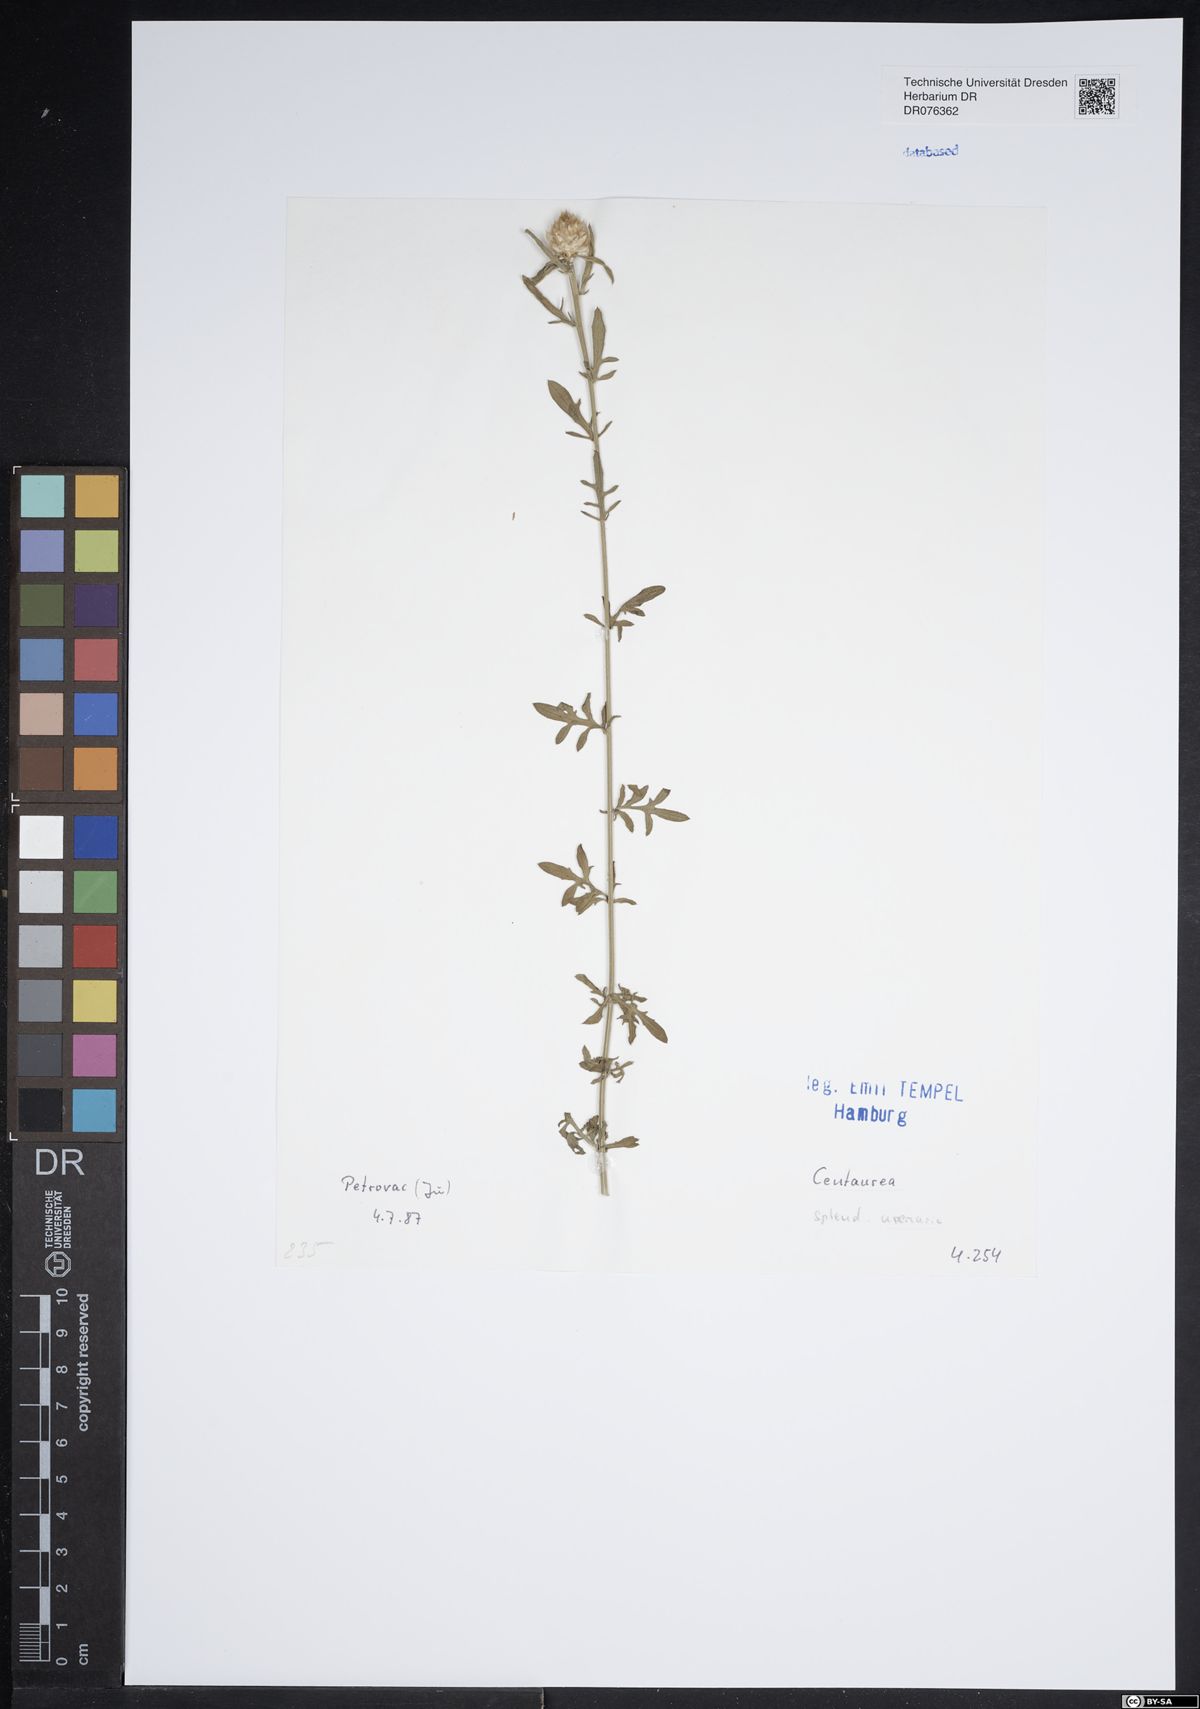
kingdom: Plantae
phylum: Tracheophyta
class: Magnoliopsida
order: Asterales
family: Asteraceae
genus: Centaurea
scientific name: Centaurea
